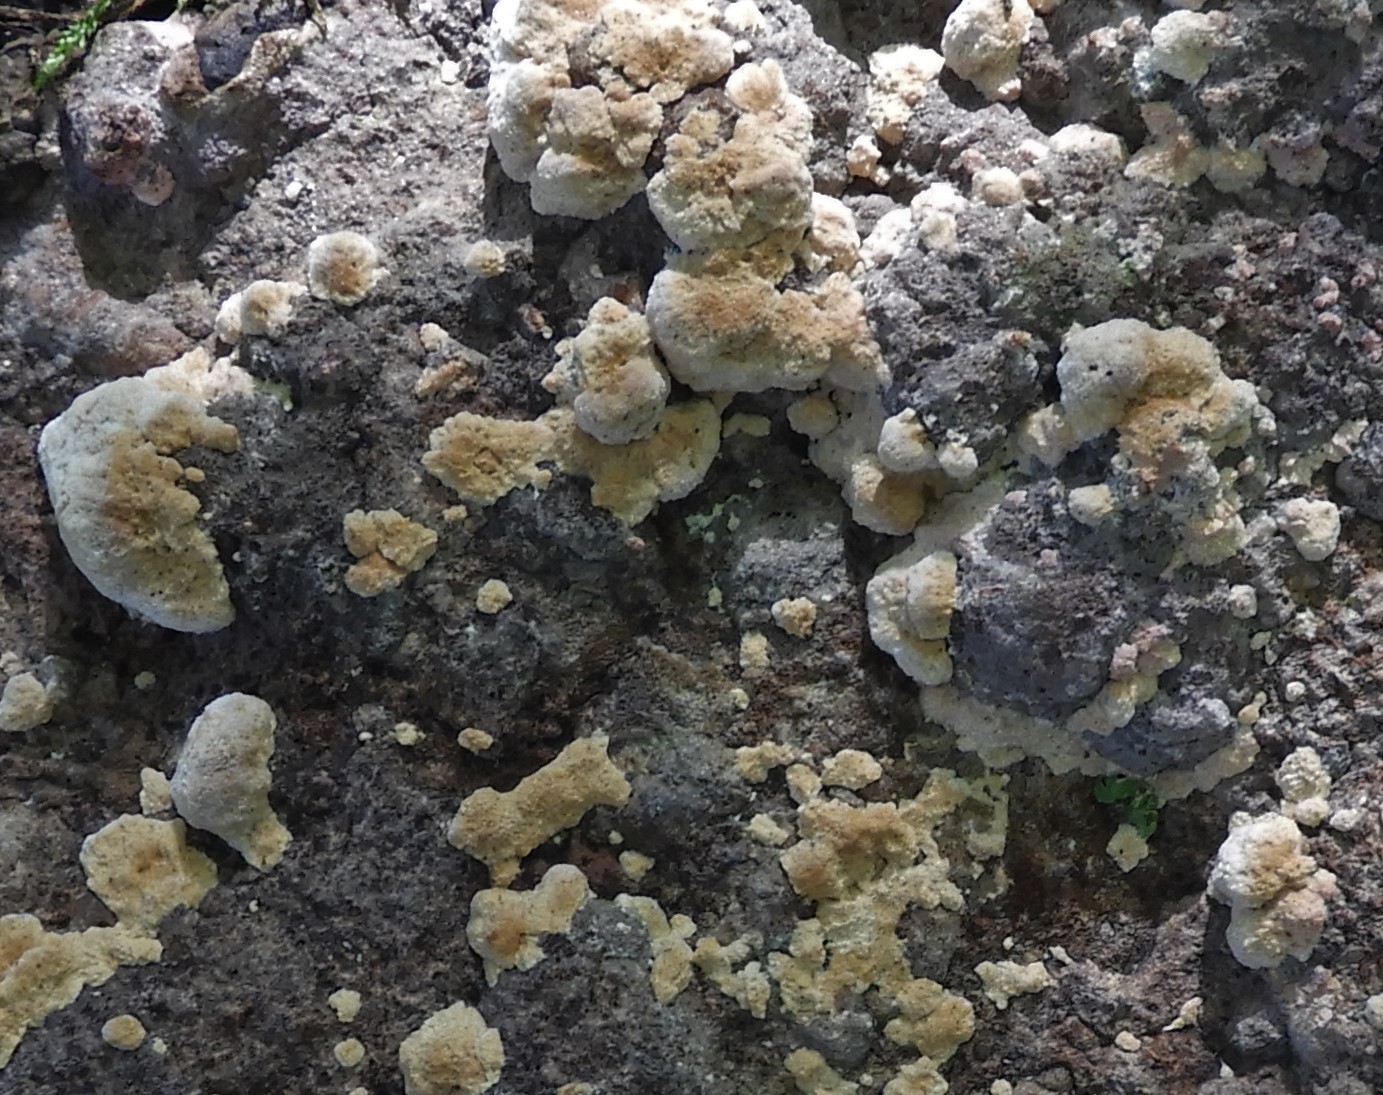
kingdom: Fungi
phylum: Basidiomycota
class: Agaricomycetes
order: Polyporales
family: Fomitopsidaceae
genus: Daedalea
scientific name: Daedalea quercina
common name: ege-labyrintsvamp
